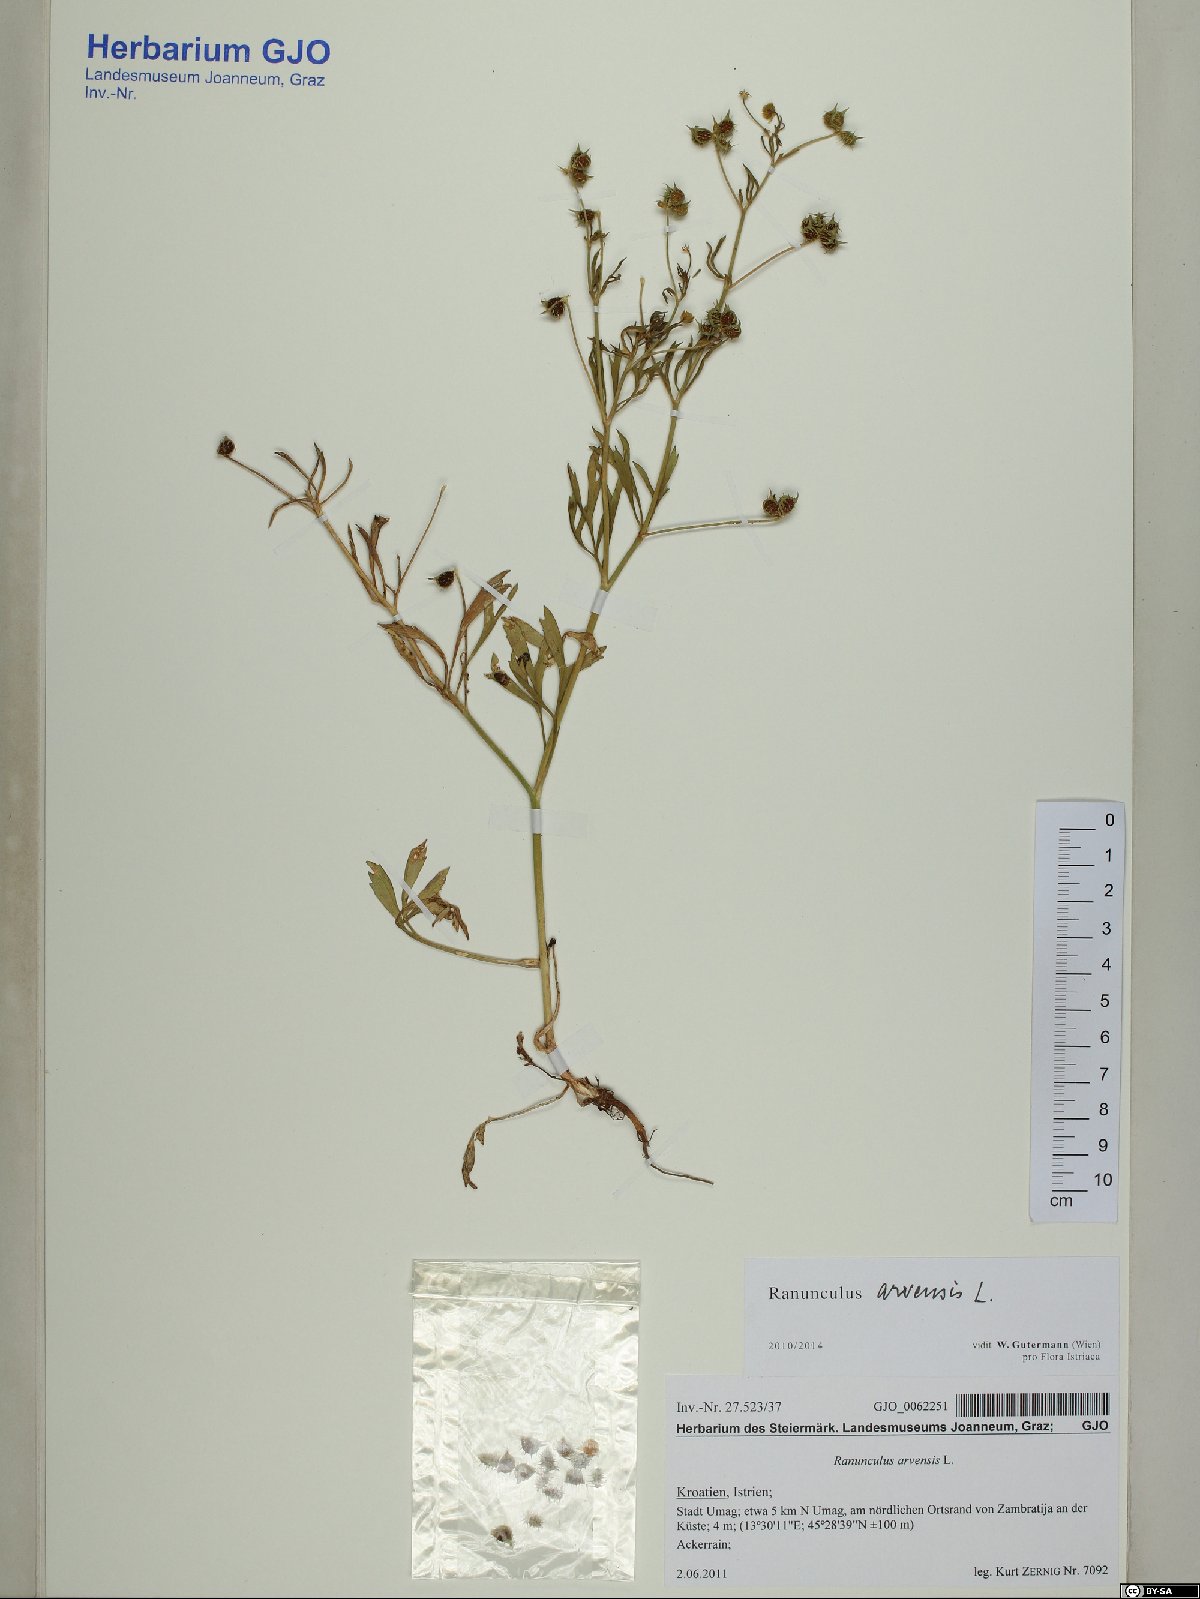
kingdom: Plantae
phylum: Tracheophyta
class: Magnoliopsida
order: Ranunculales
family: Ranunculaceae
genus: Ranunculus
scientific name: Ranunculus arvensis
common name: Corn buttercup
